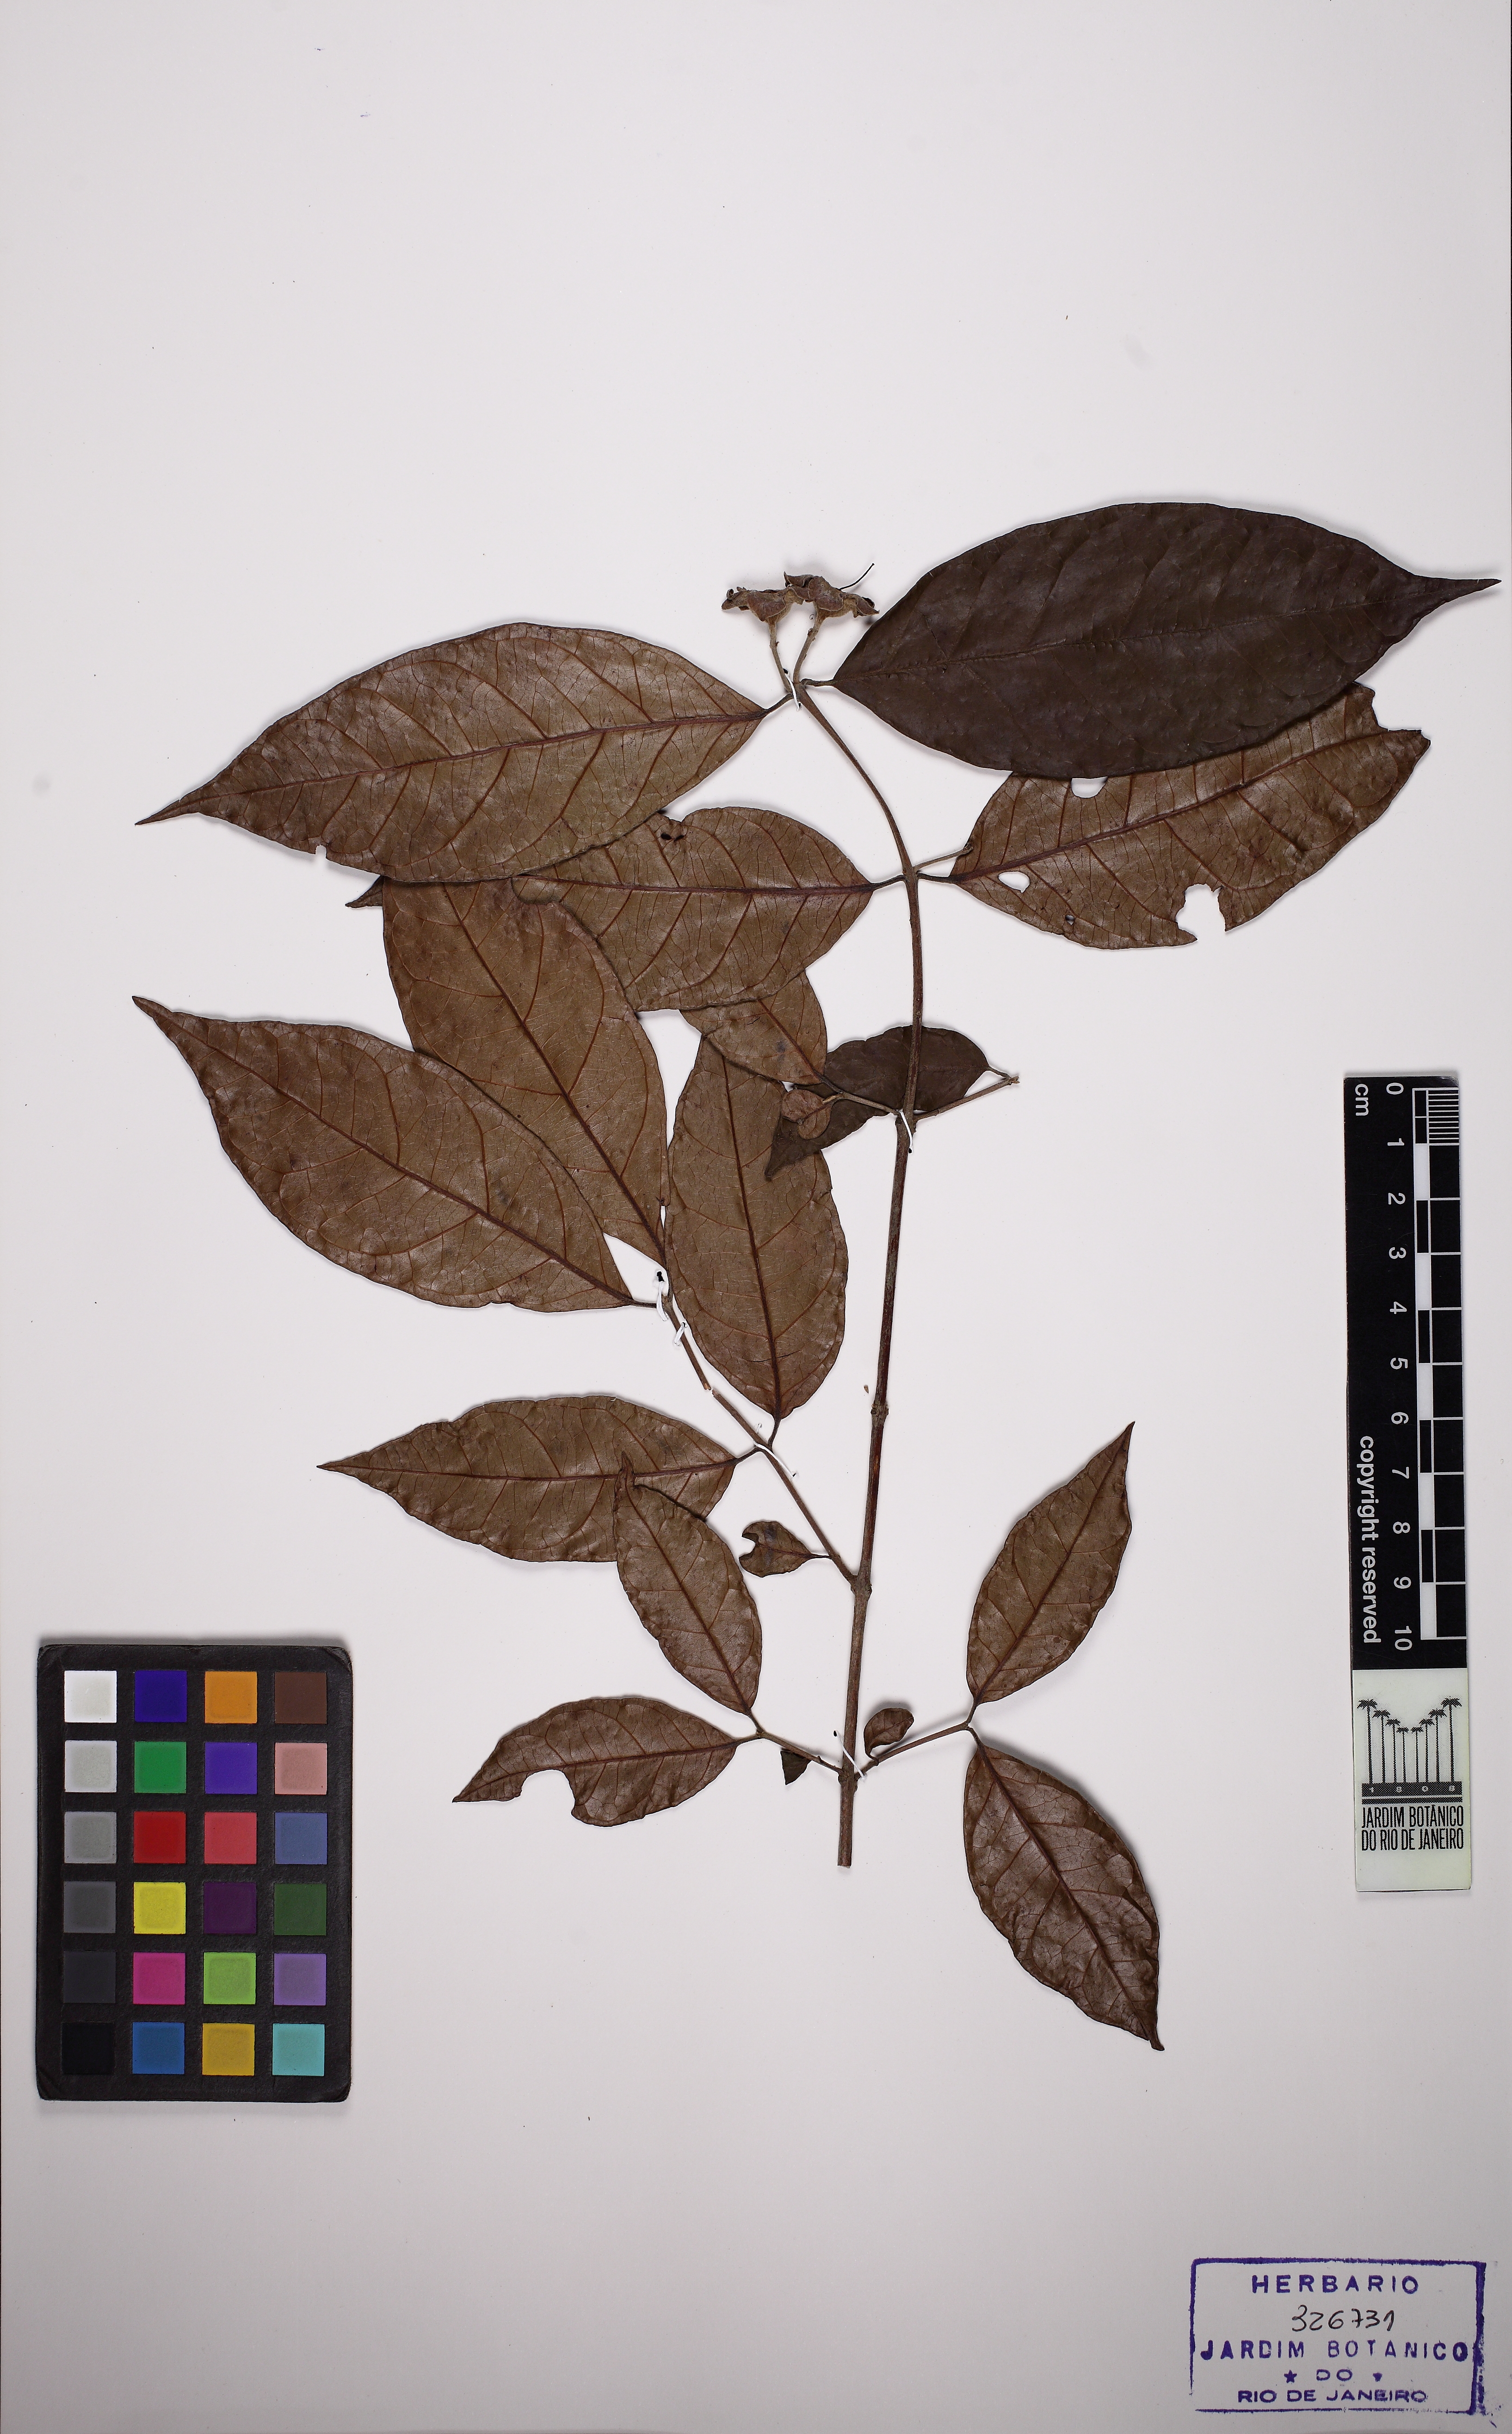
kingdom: Plantae
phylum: Tracheophyta
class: Magnoliopsida
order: Myrtales
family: Myrtaceae
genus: Campomanesia
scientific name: Campomanesia laurifolia
